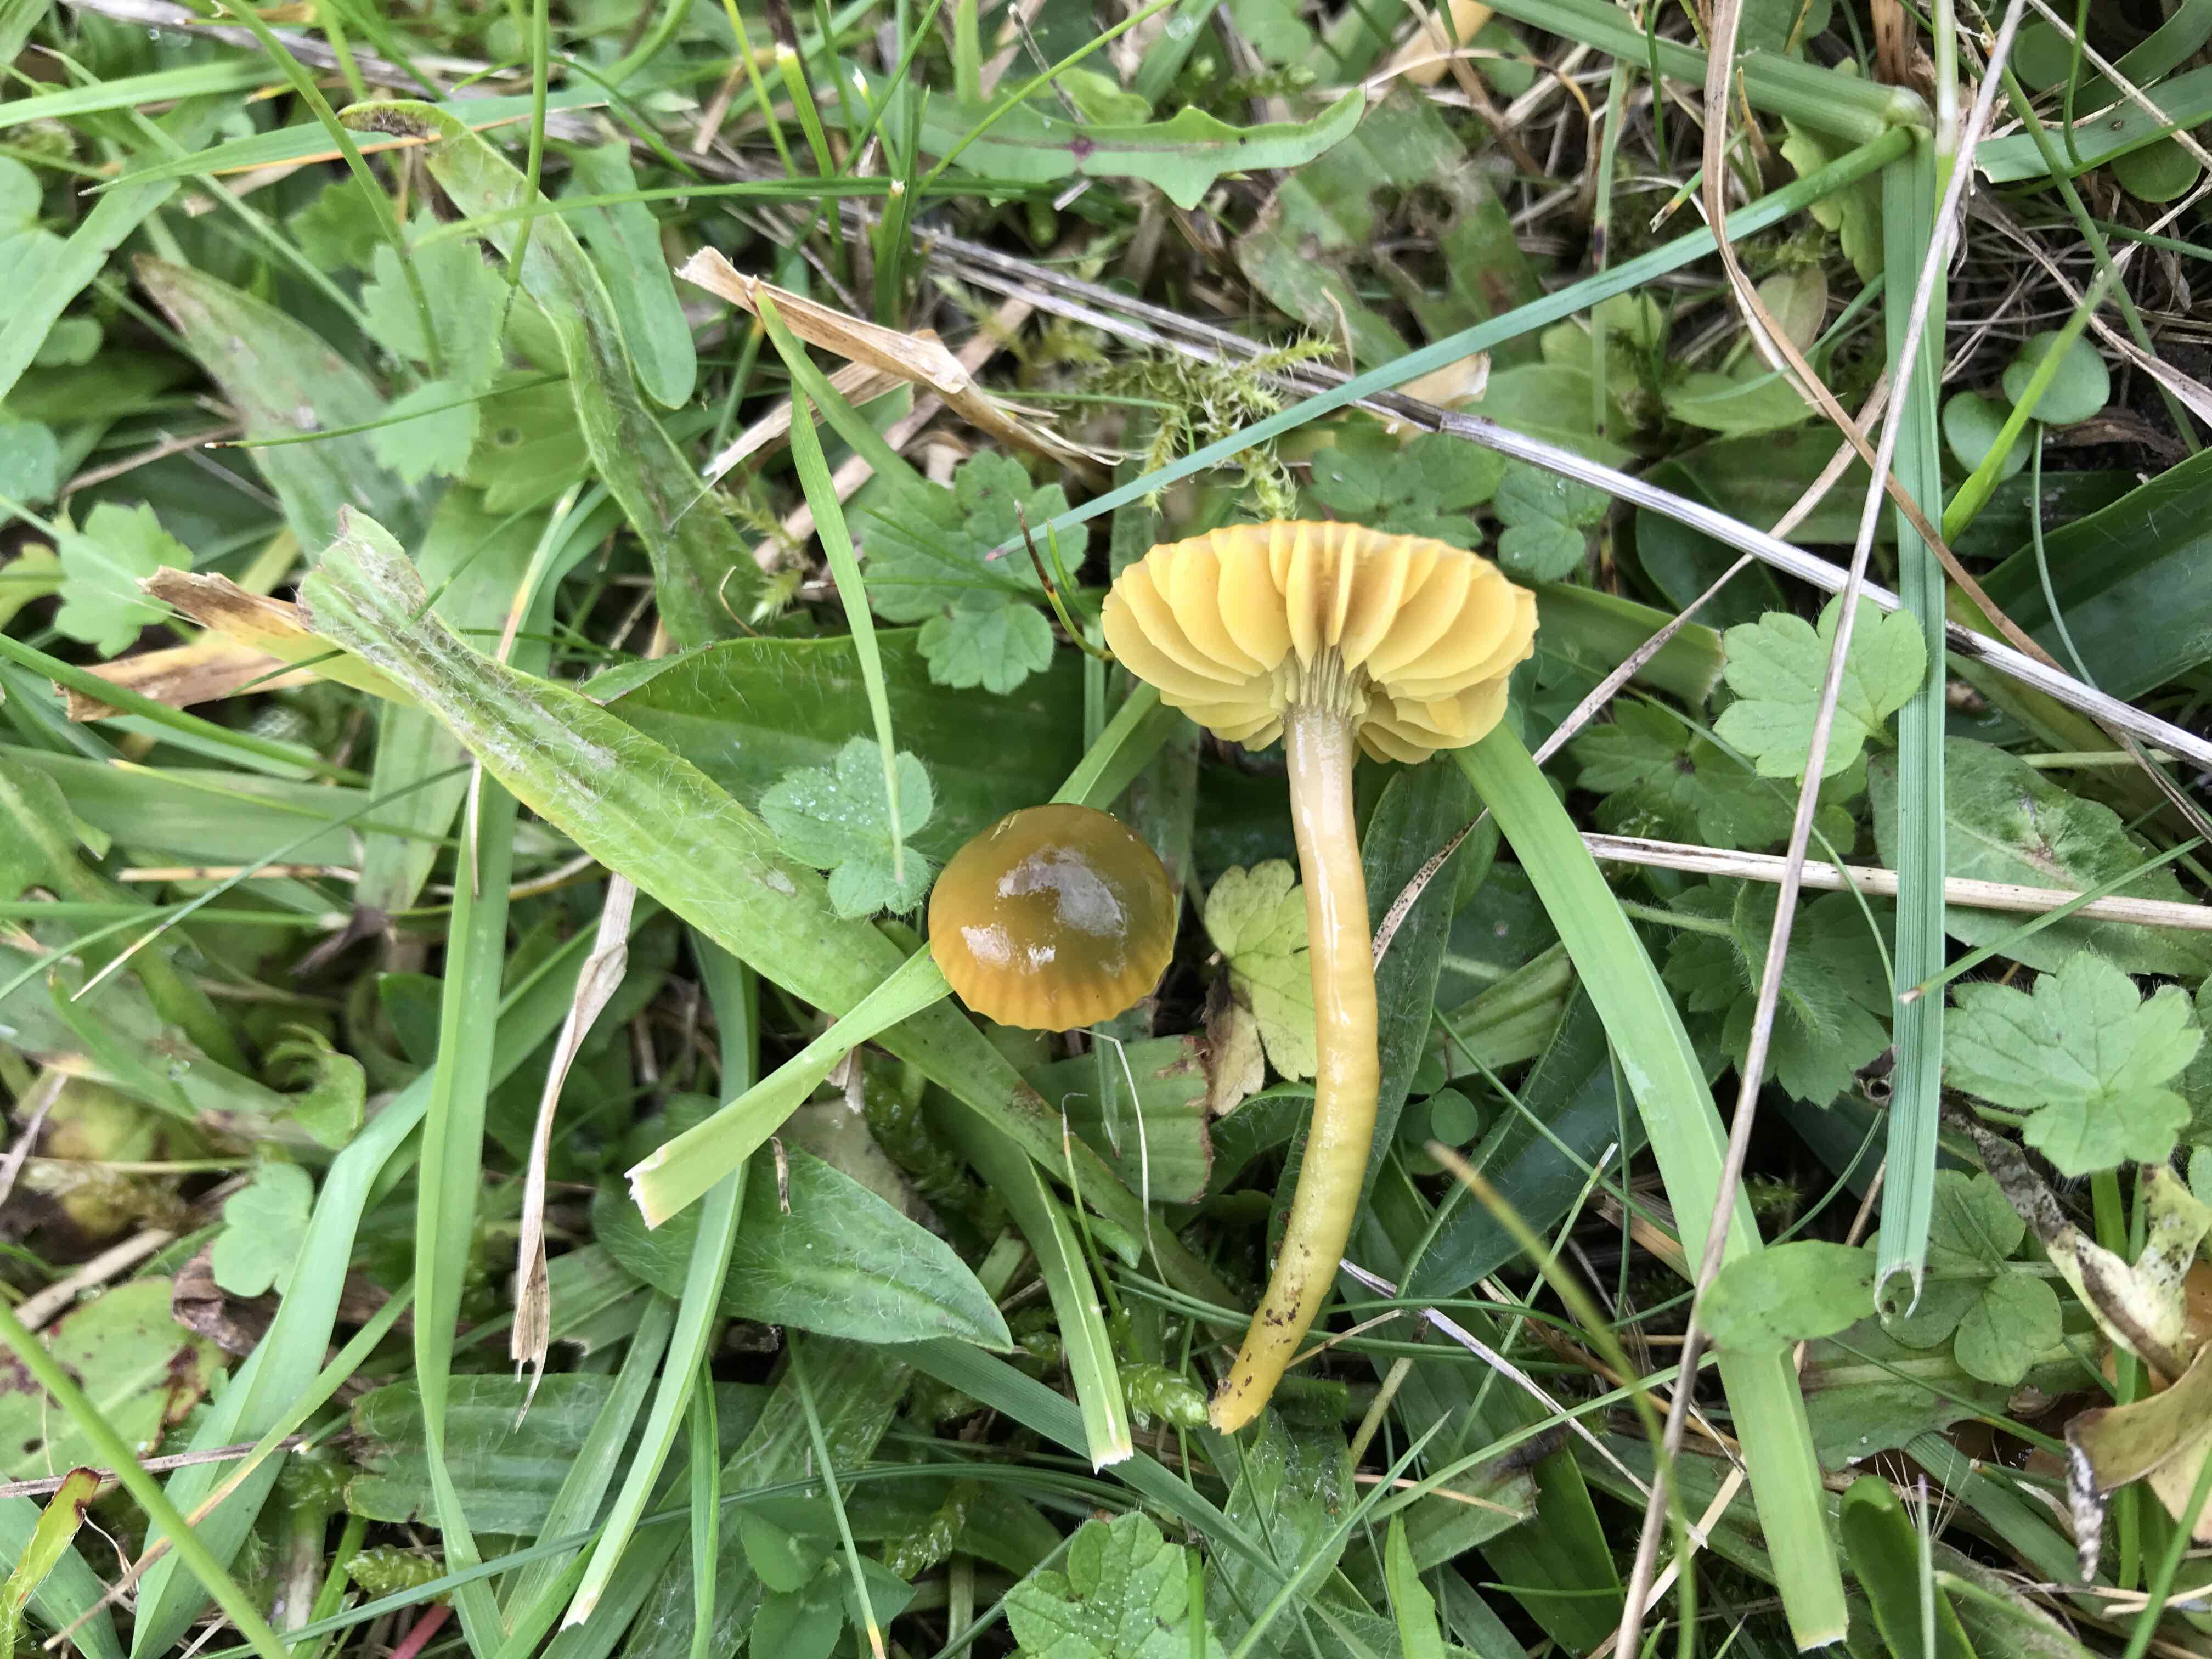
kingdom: Fungi
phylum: Basidiomycota
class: Agaricomycetes
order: Agaricales
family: Hygrophoraceae
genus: Gliophorus
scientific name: Gliophorus psittacinus
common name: papegøje-vokshat
